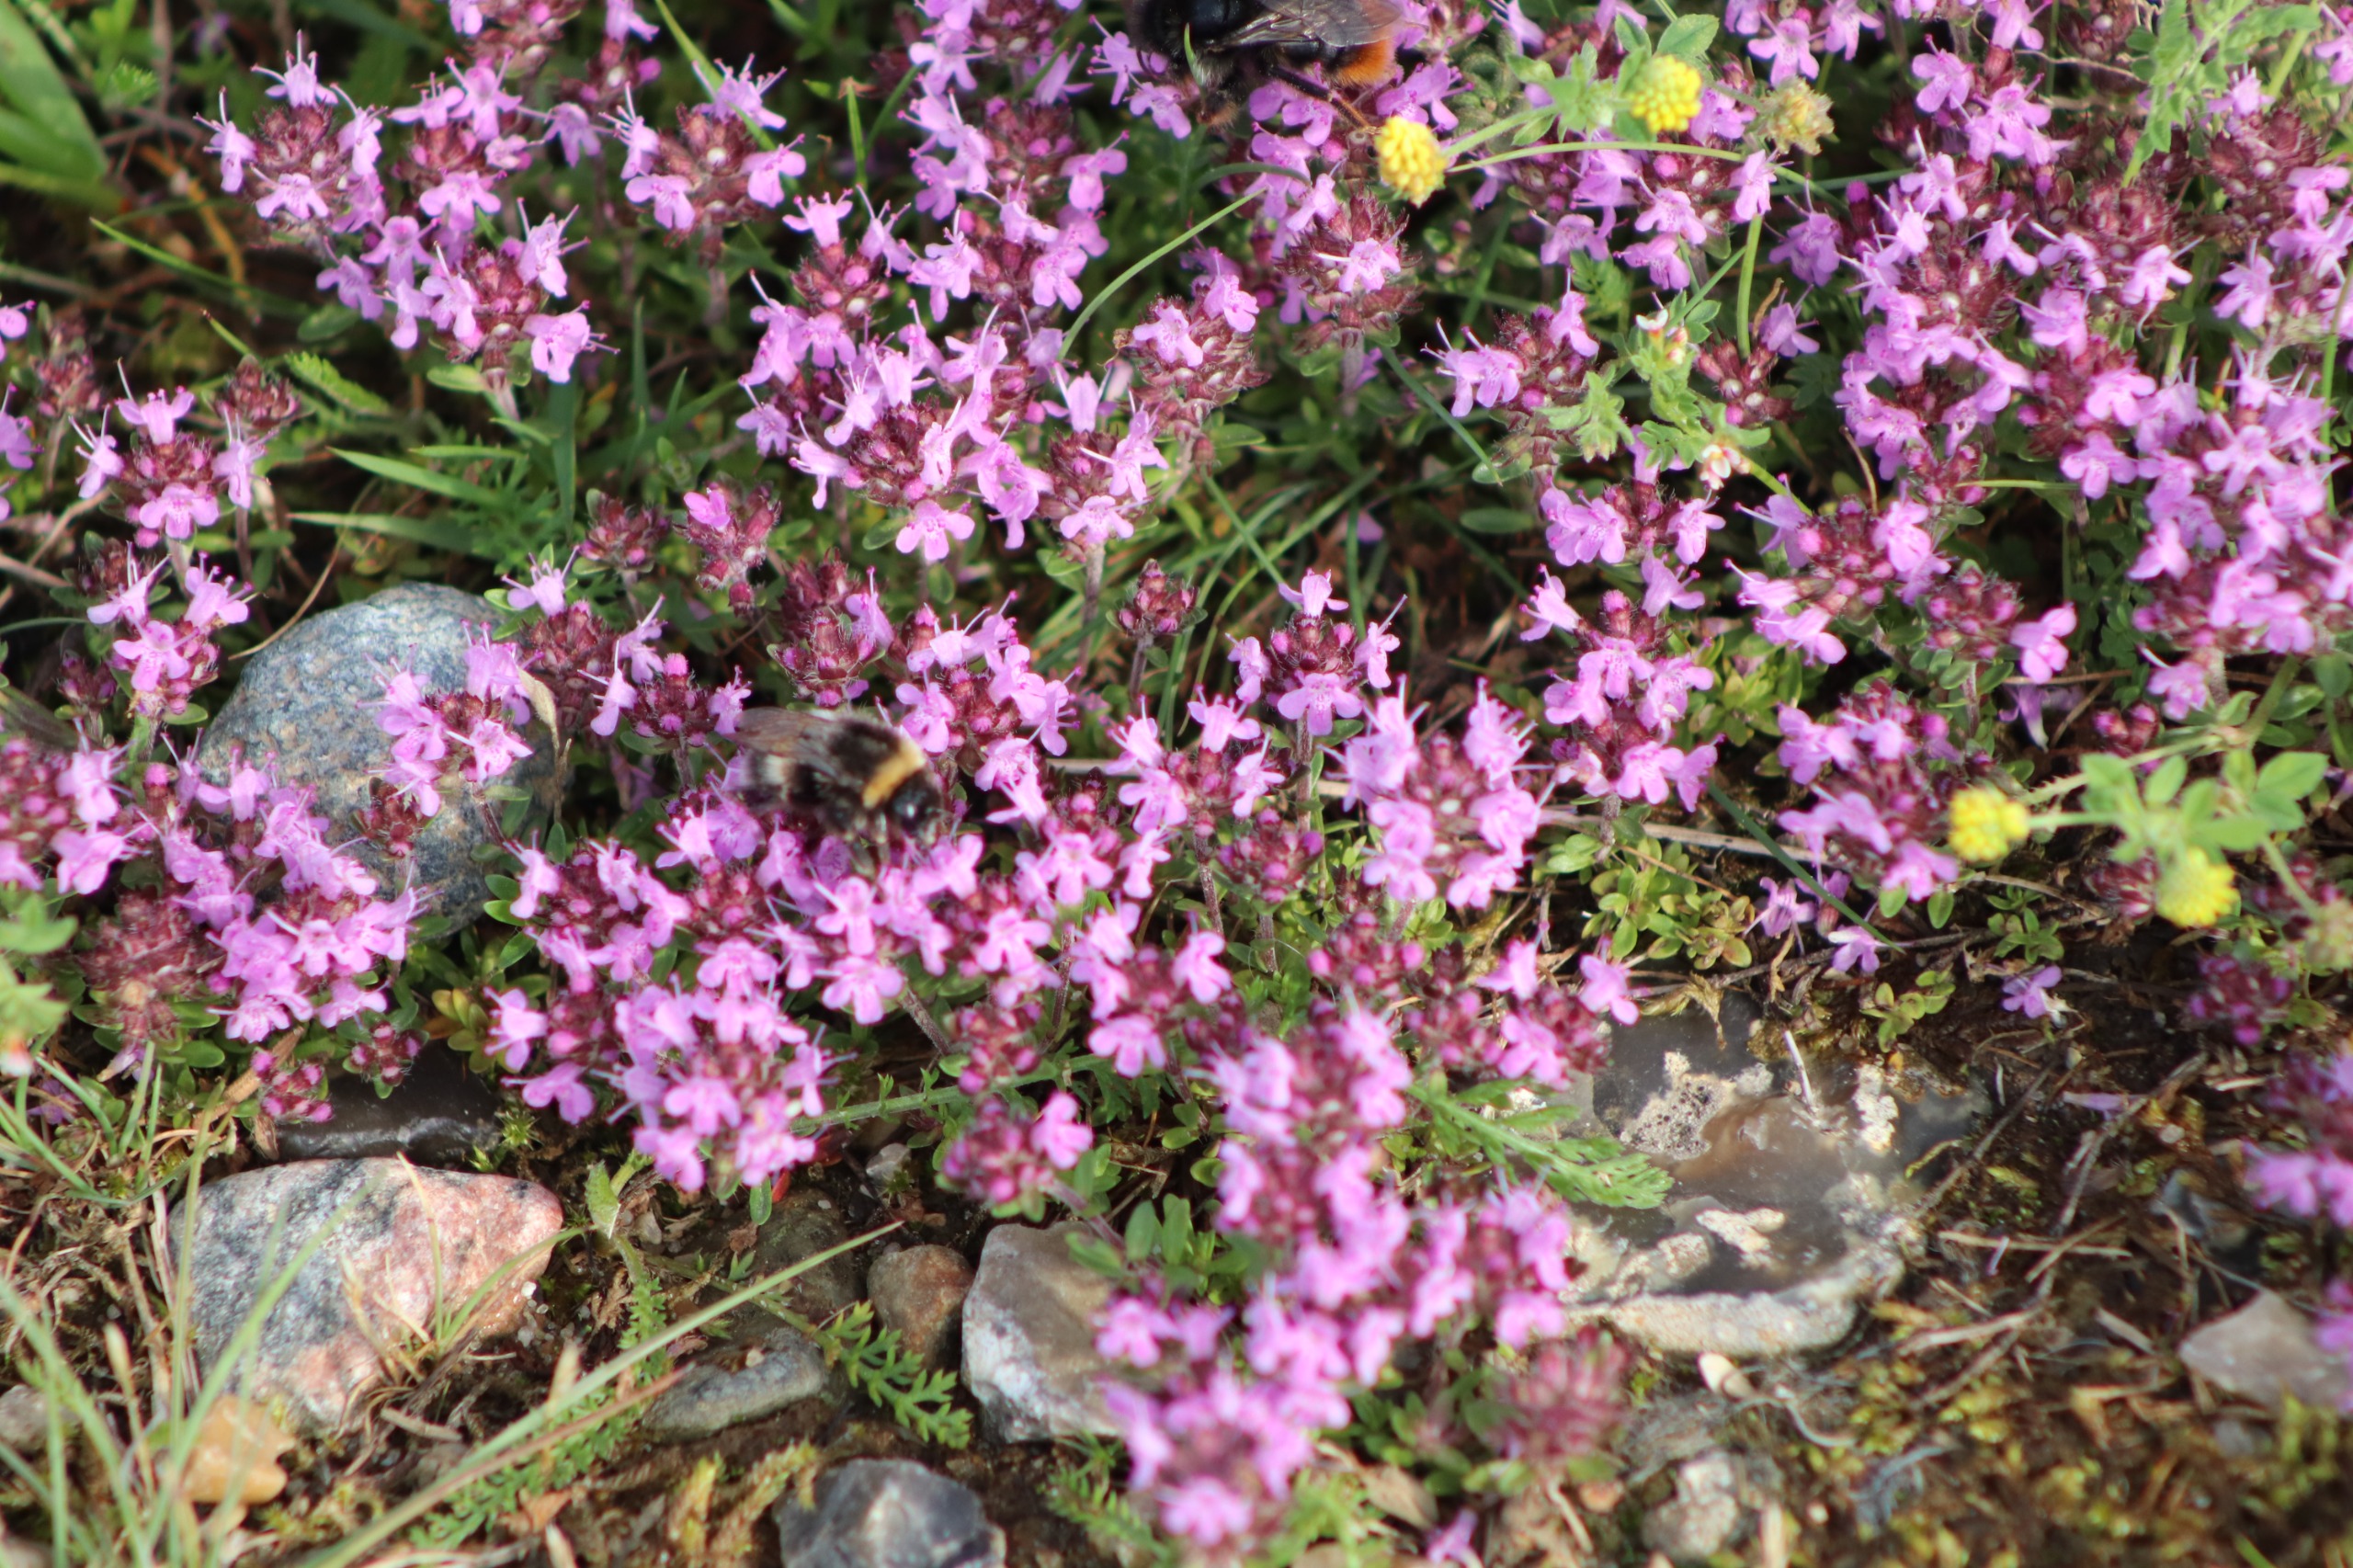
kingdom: Plantae
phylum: Tracheophyta
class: Magnoliopsida
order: Lamiales
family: Lamiaceae
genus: Thymus
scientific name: Thymus serpyllum
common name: Smalbladet timian
